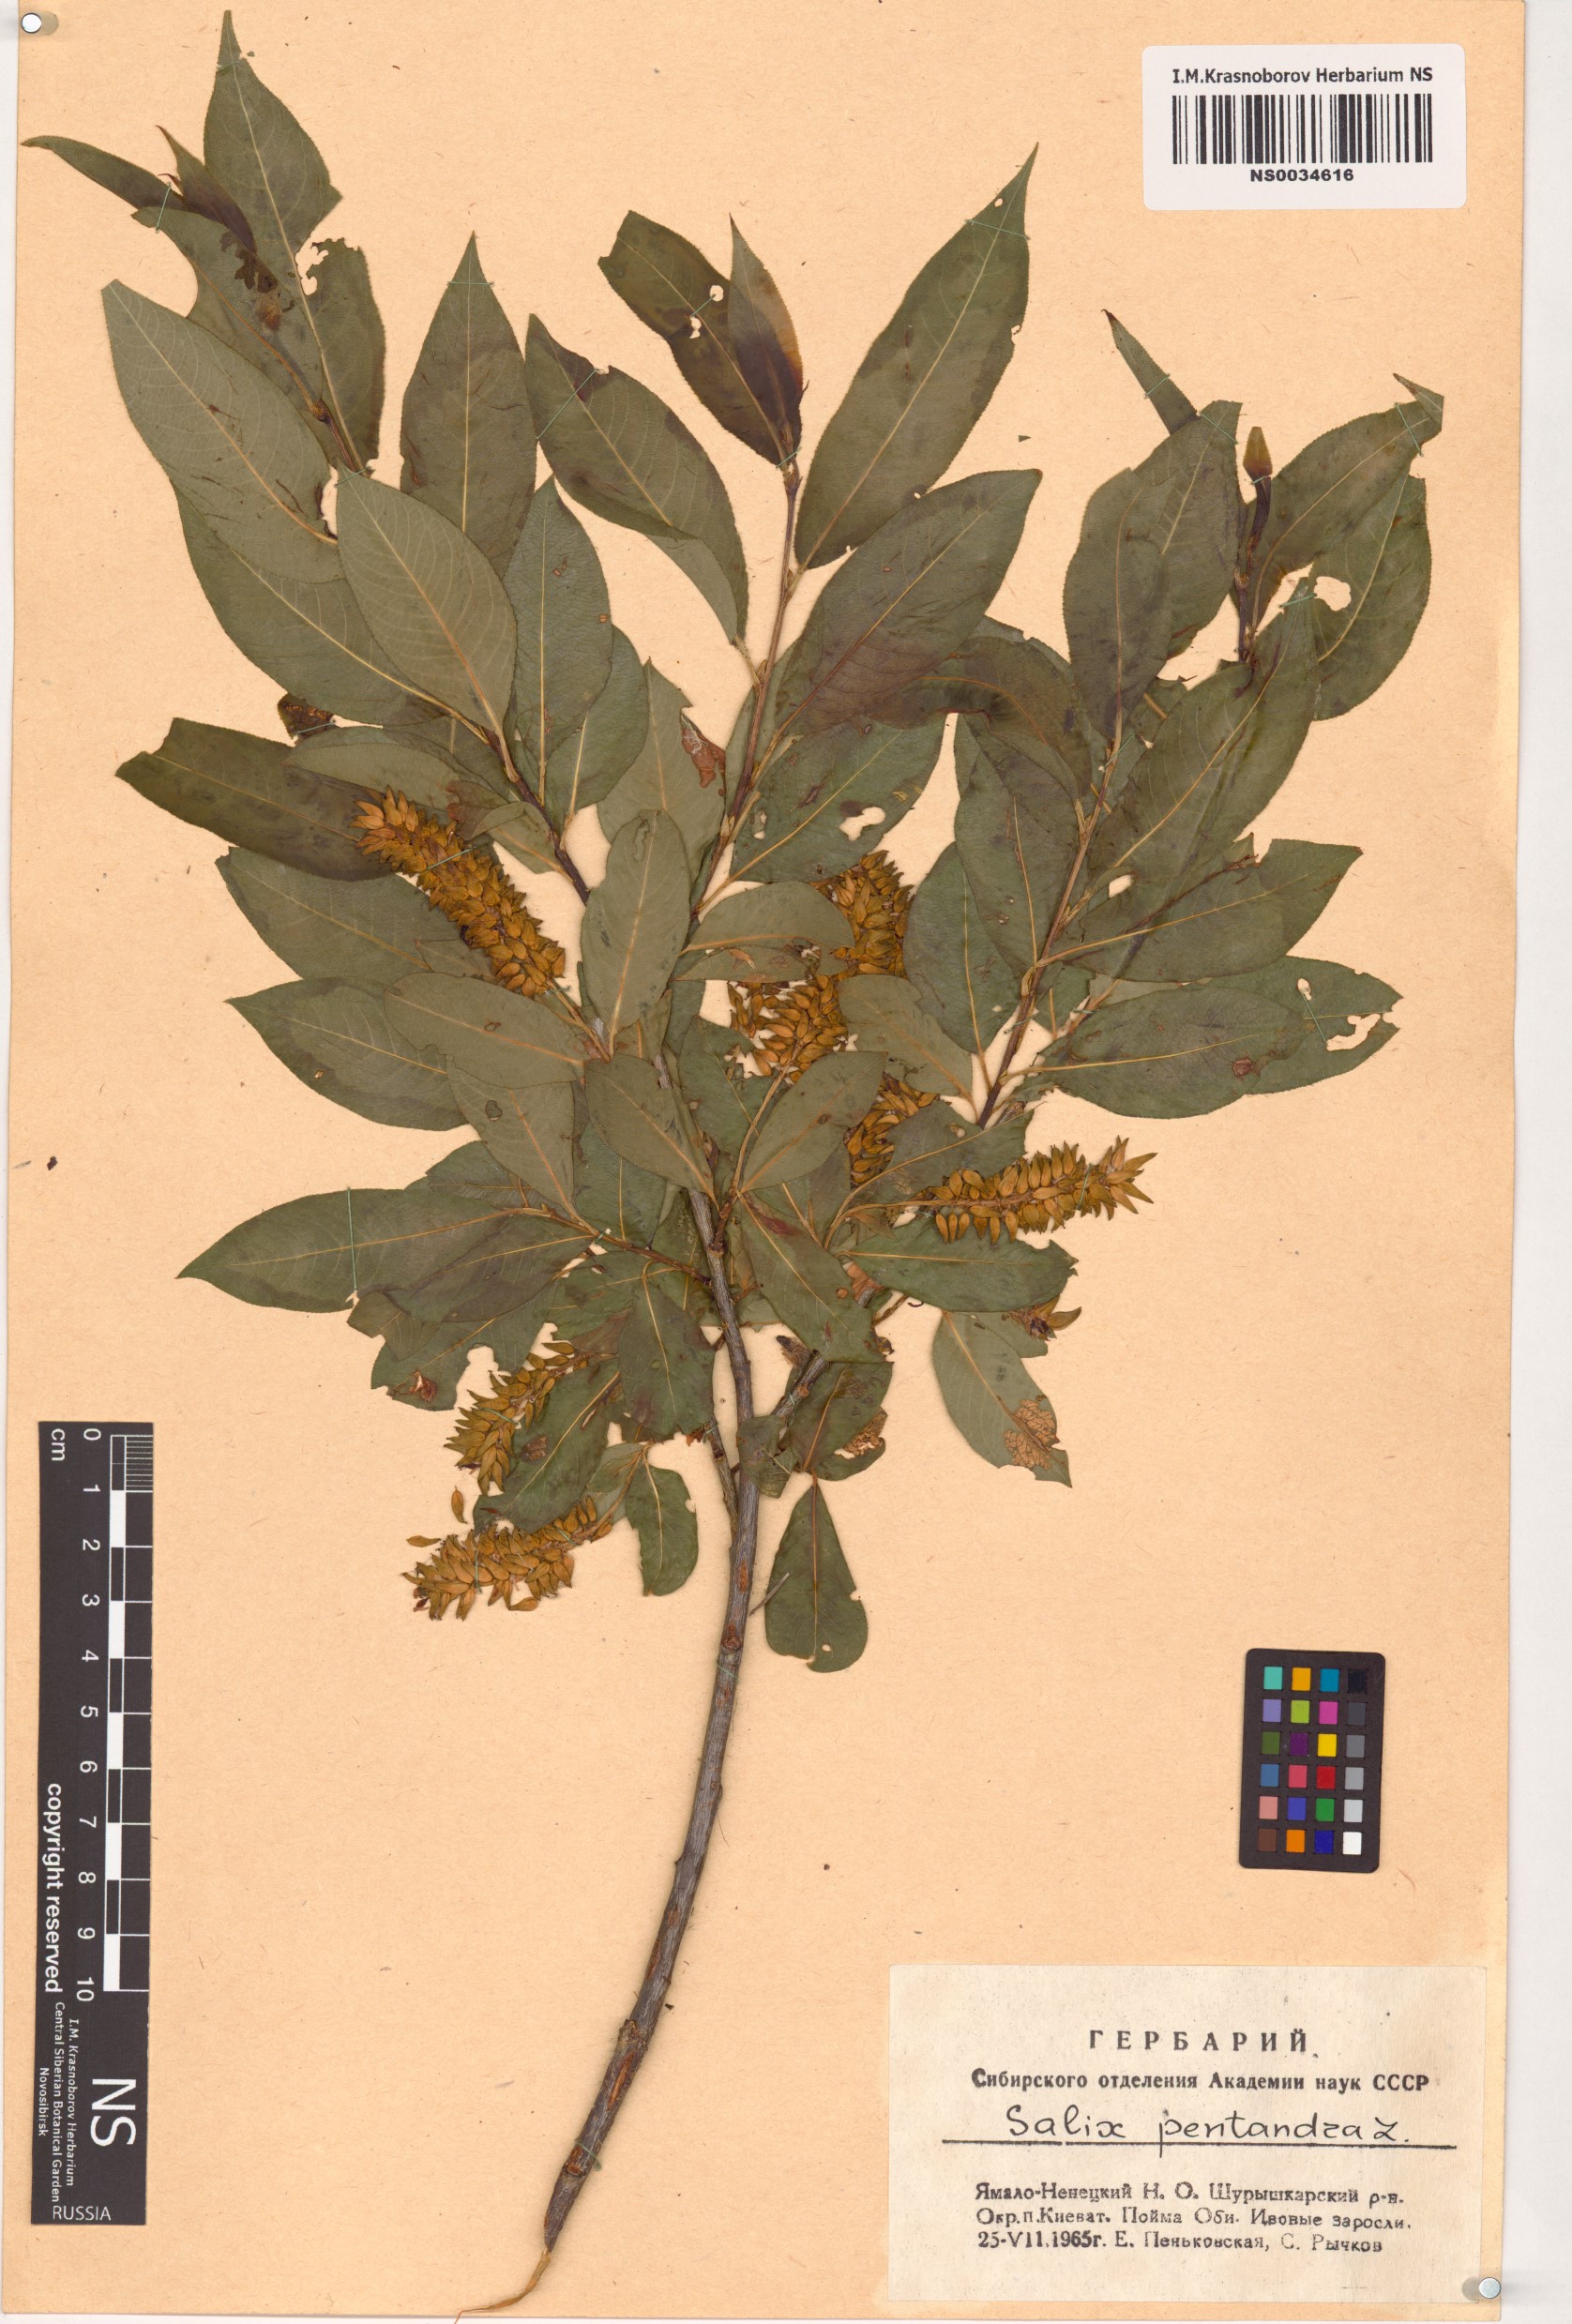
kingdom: Plantae
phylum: Tracheophyta
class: Magnoliopsida
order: Malpighiales
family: Salicaceae
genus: Salix
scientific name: Salix pentandra
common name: Bay willow
